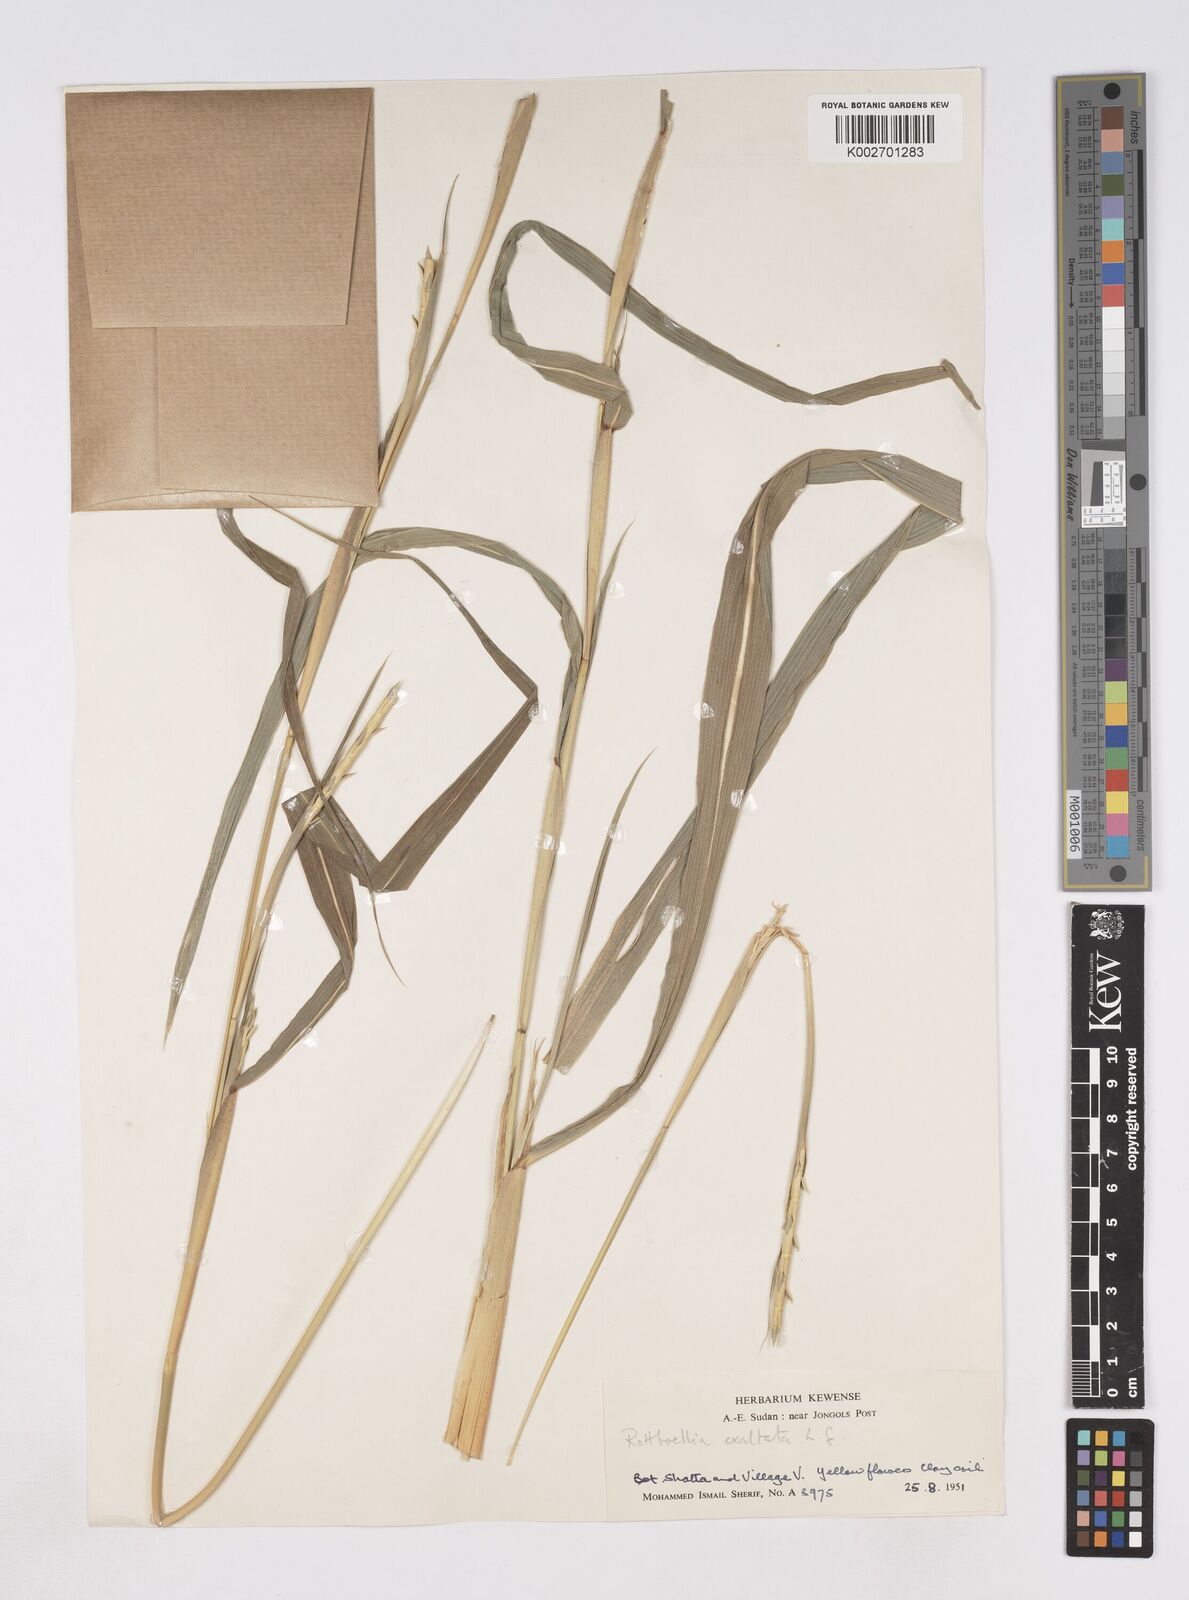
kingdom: Plantae
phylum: Tracheophyta
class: Liliopsida
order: Poales
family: Poaceae
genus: Rottboellia
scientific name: Rottboellia cochinchinensis
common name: Itchgrass
